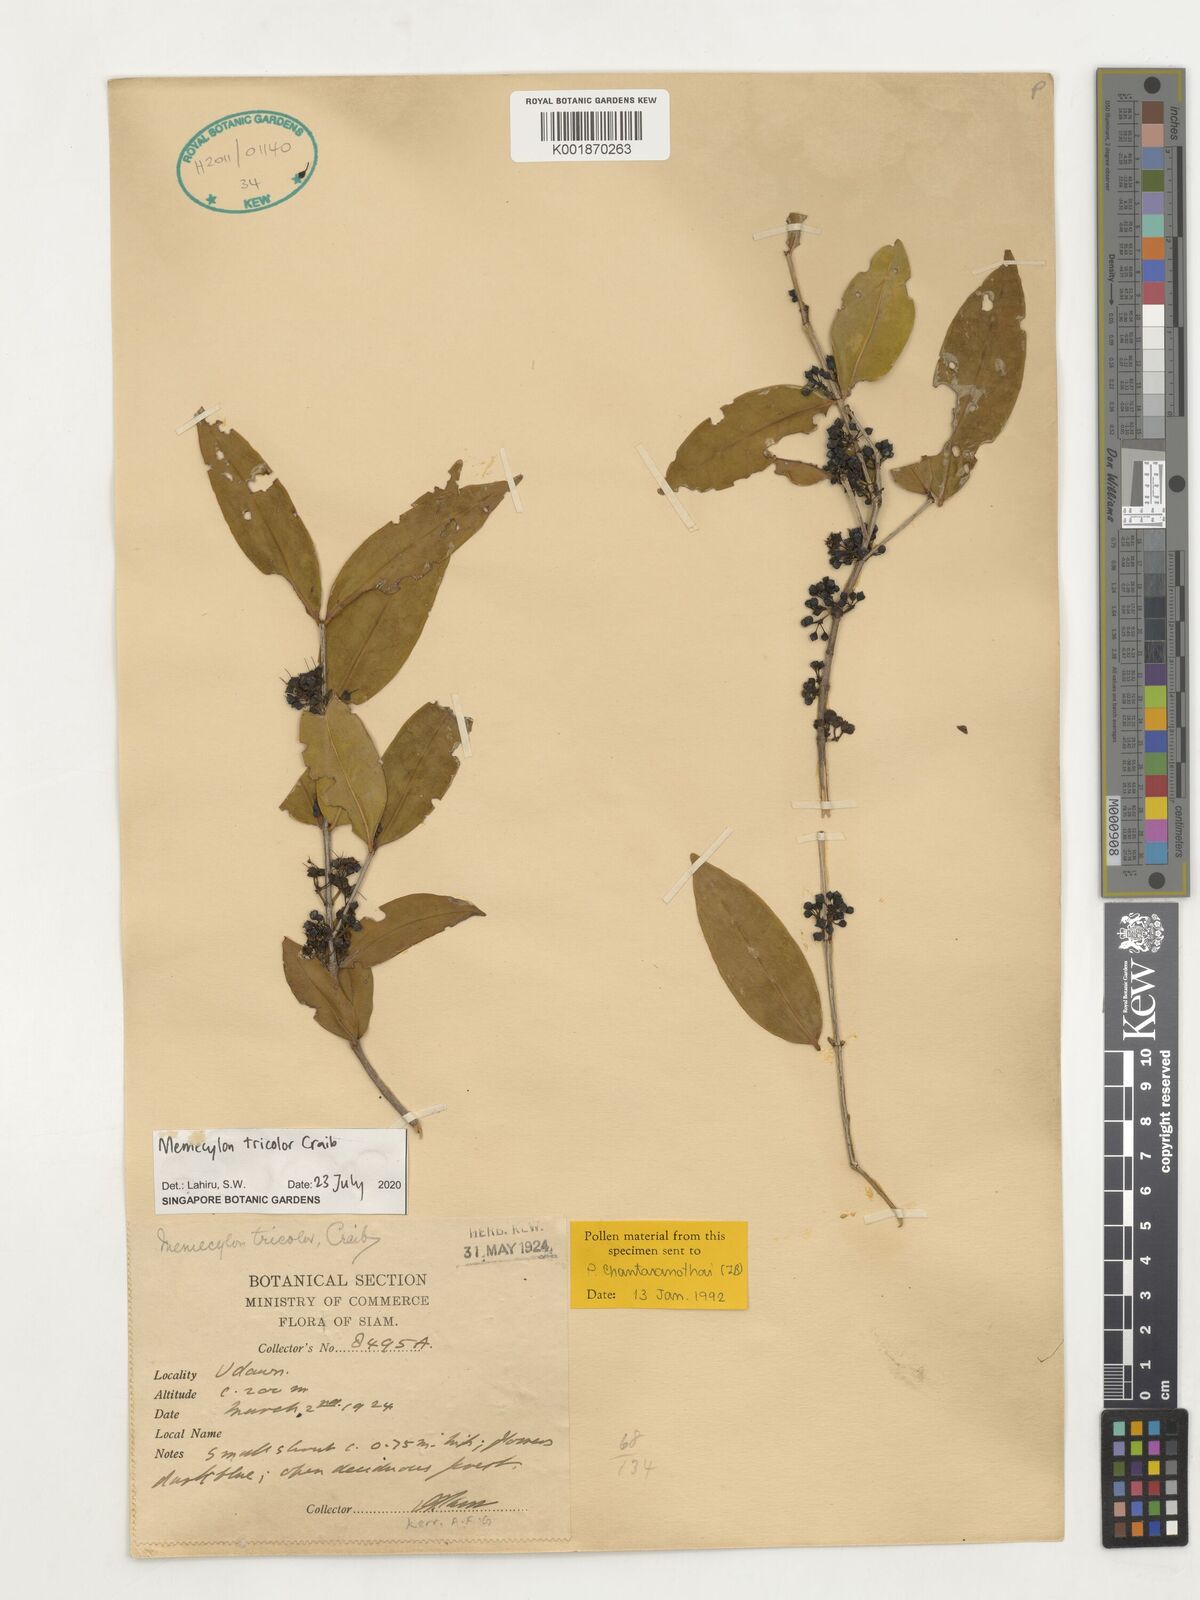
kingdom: Plantae
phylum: Tracheophyta
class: Magnoliopsida
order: Myrtales
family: Melastomataceae
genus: Memecylon
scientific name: Memecylon tricolor
